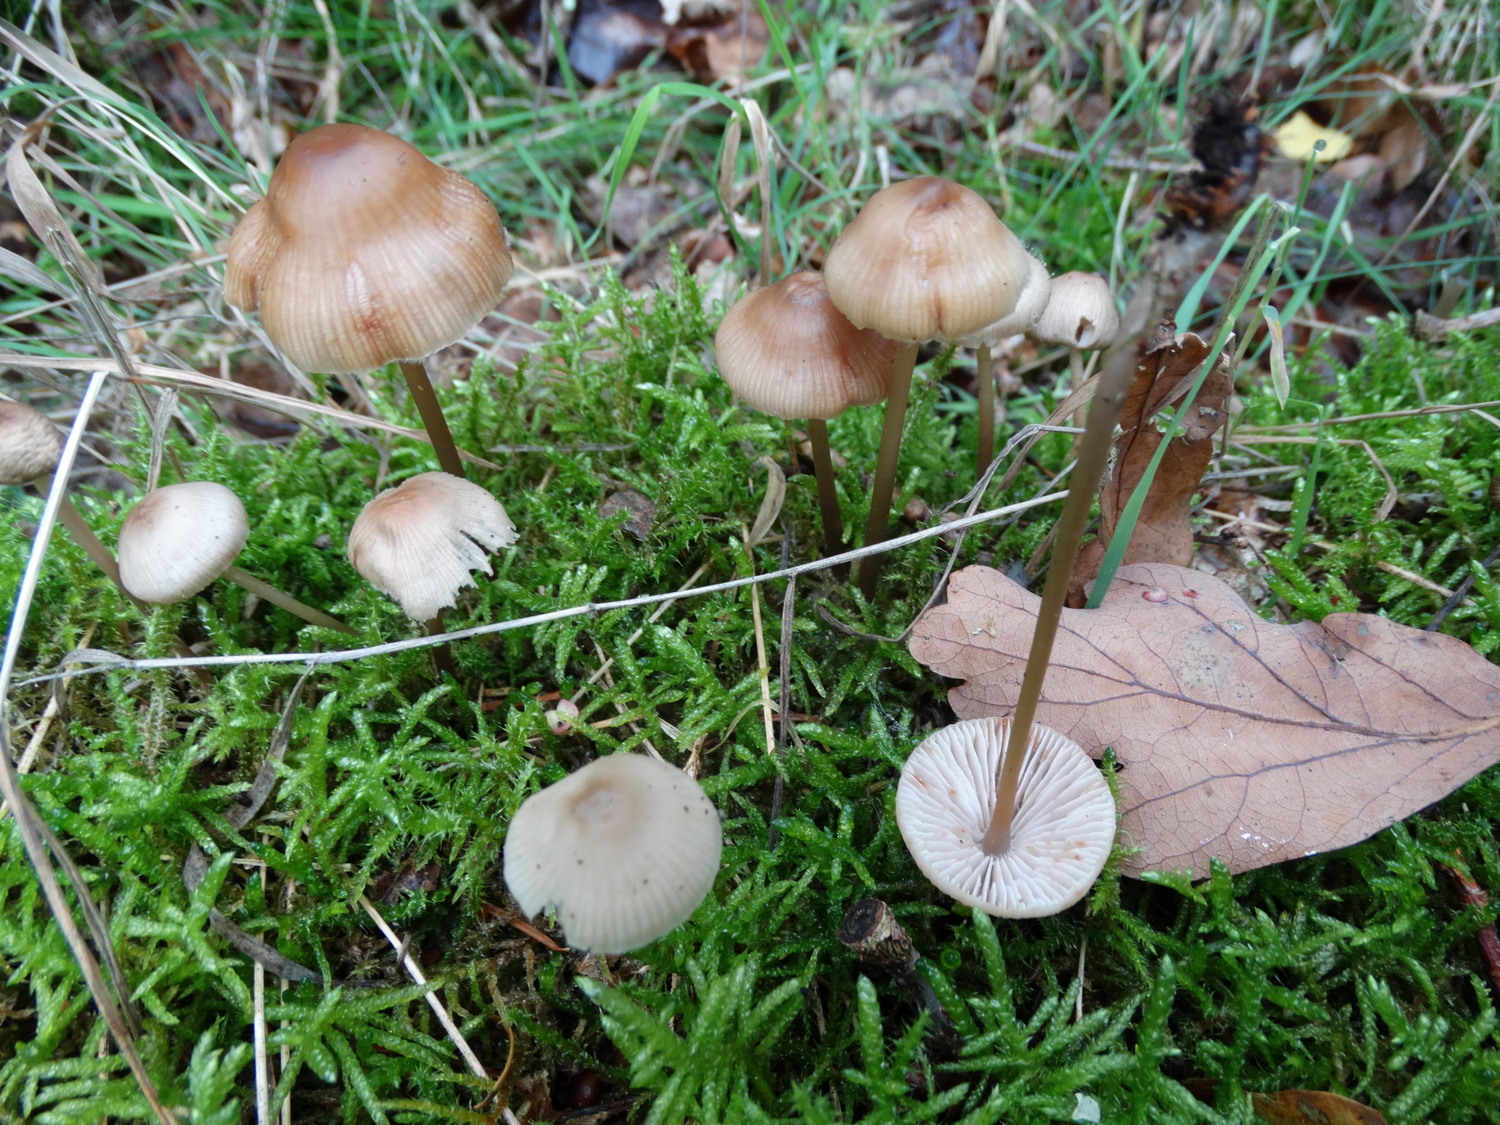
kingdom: Fungi
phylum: Basidiomycota
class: Agaricomycetes
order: Agaricales
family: Mycenaceae
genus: Mycena
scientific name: Mycena galericulata
